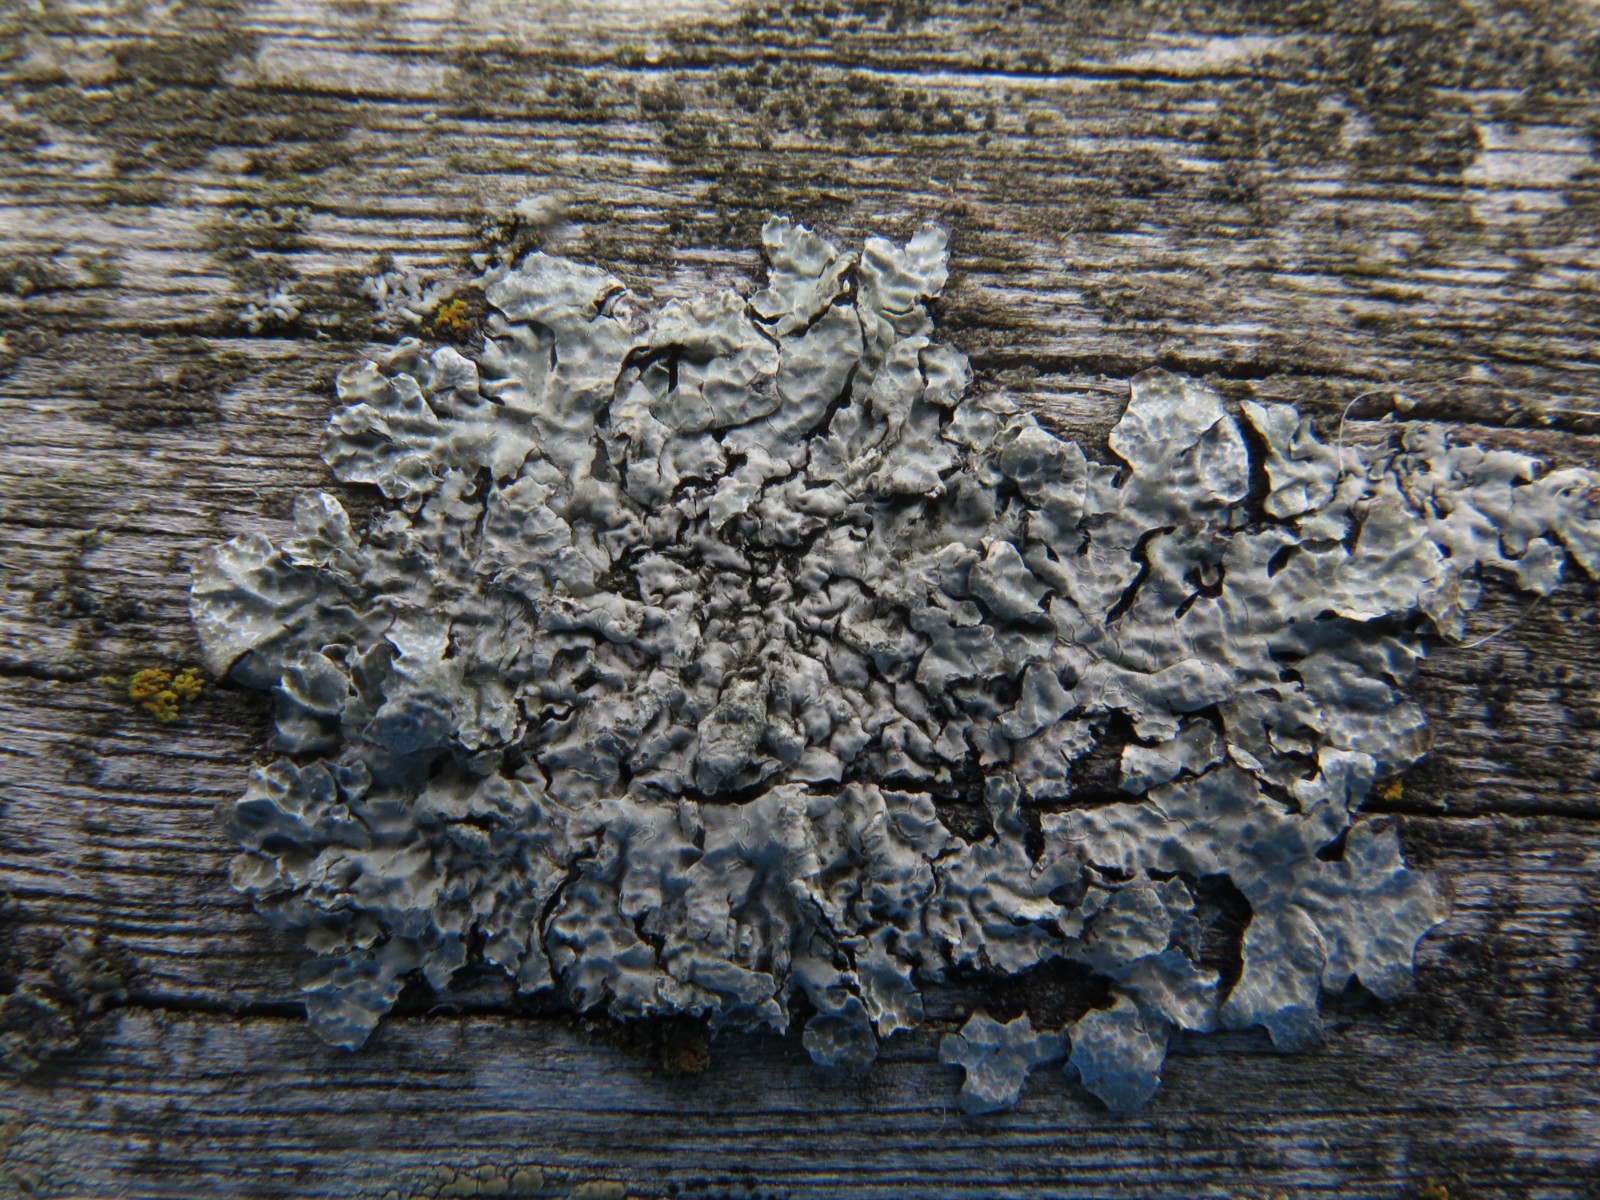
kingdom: Fungi
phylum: Ascomycota
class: Lecanoromycetes
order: Lecanorales
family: Parmeliaceae
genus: Parmelia
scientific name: Parmelia sulcata
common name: rynket skållav
